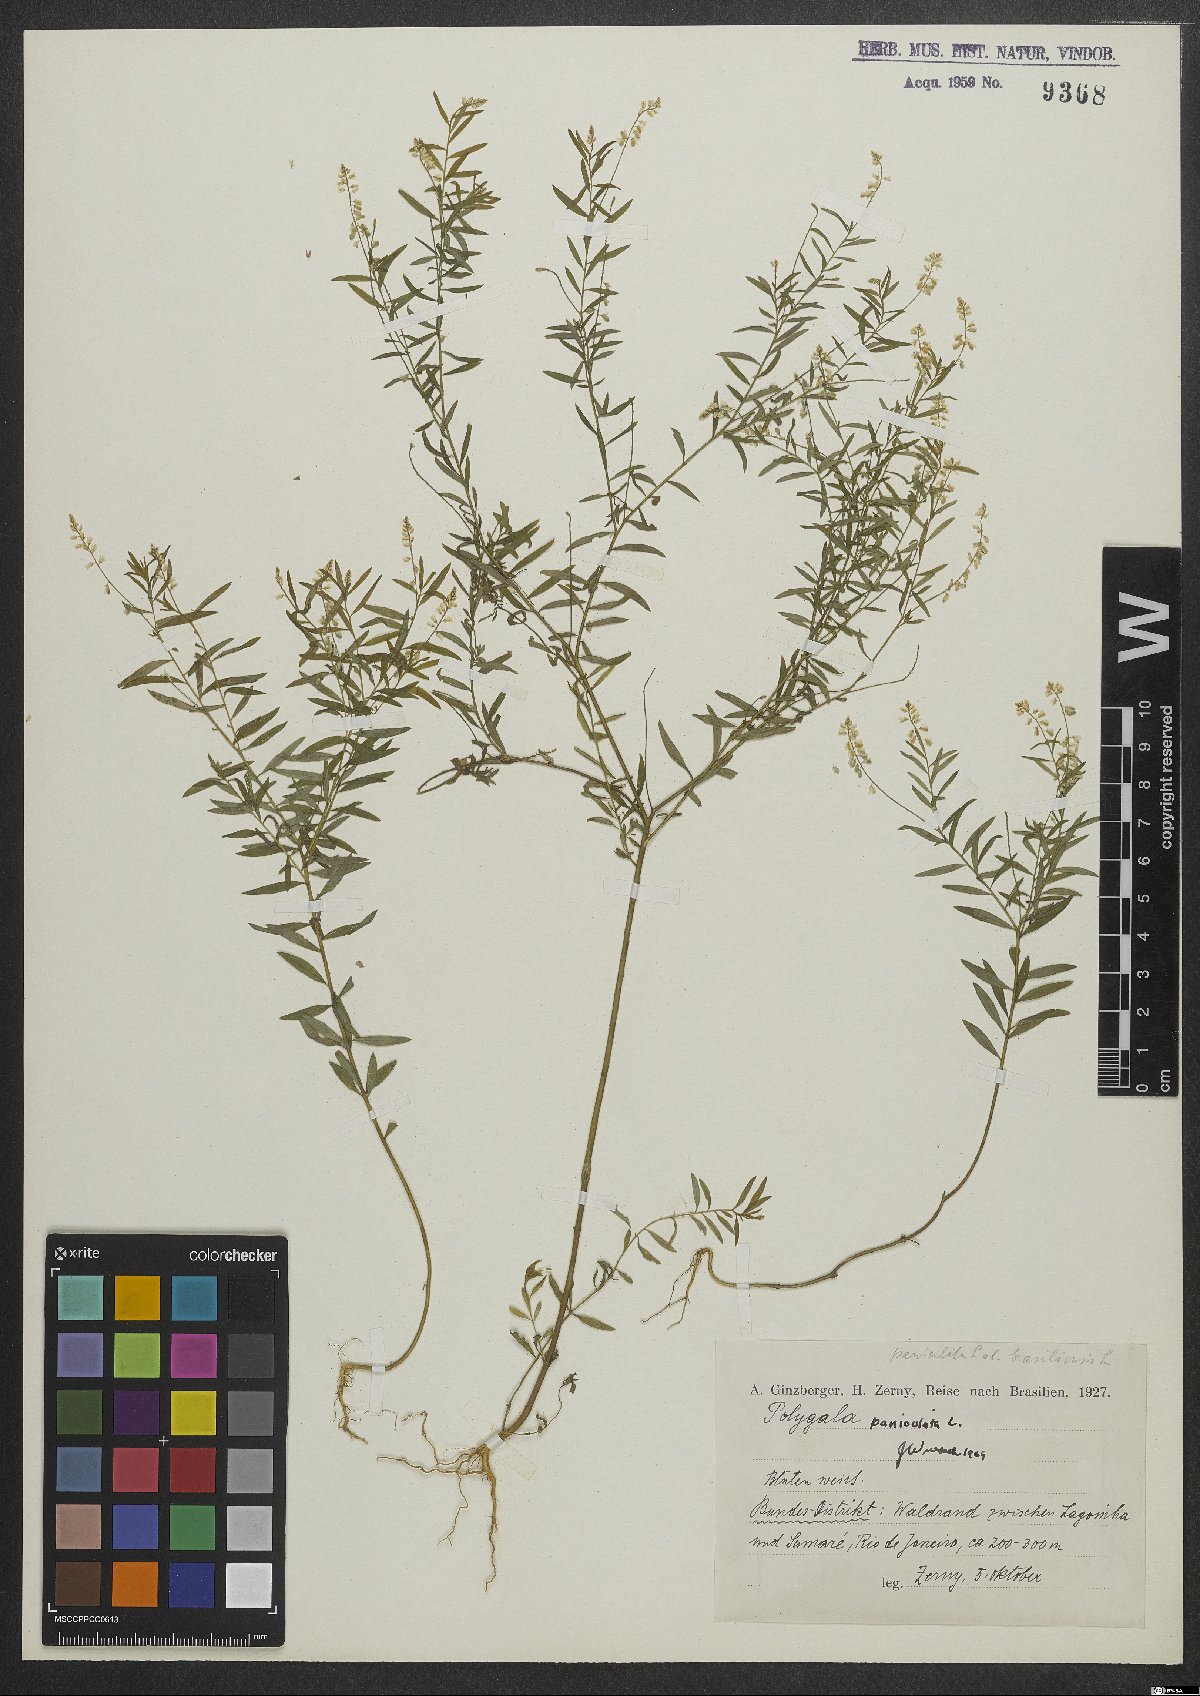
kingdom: Plantae
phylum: Tracheophyta
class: Magnoliopsida
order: Fabales
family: Polygalaceae
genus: Polygala
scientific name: Polygala exilis
